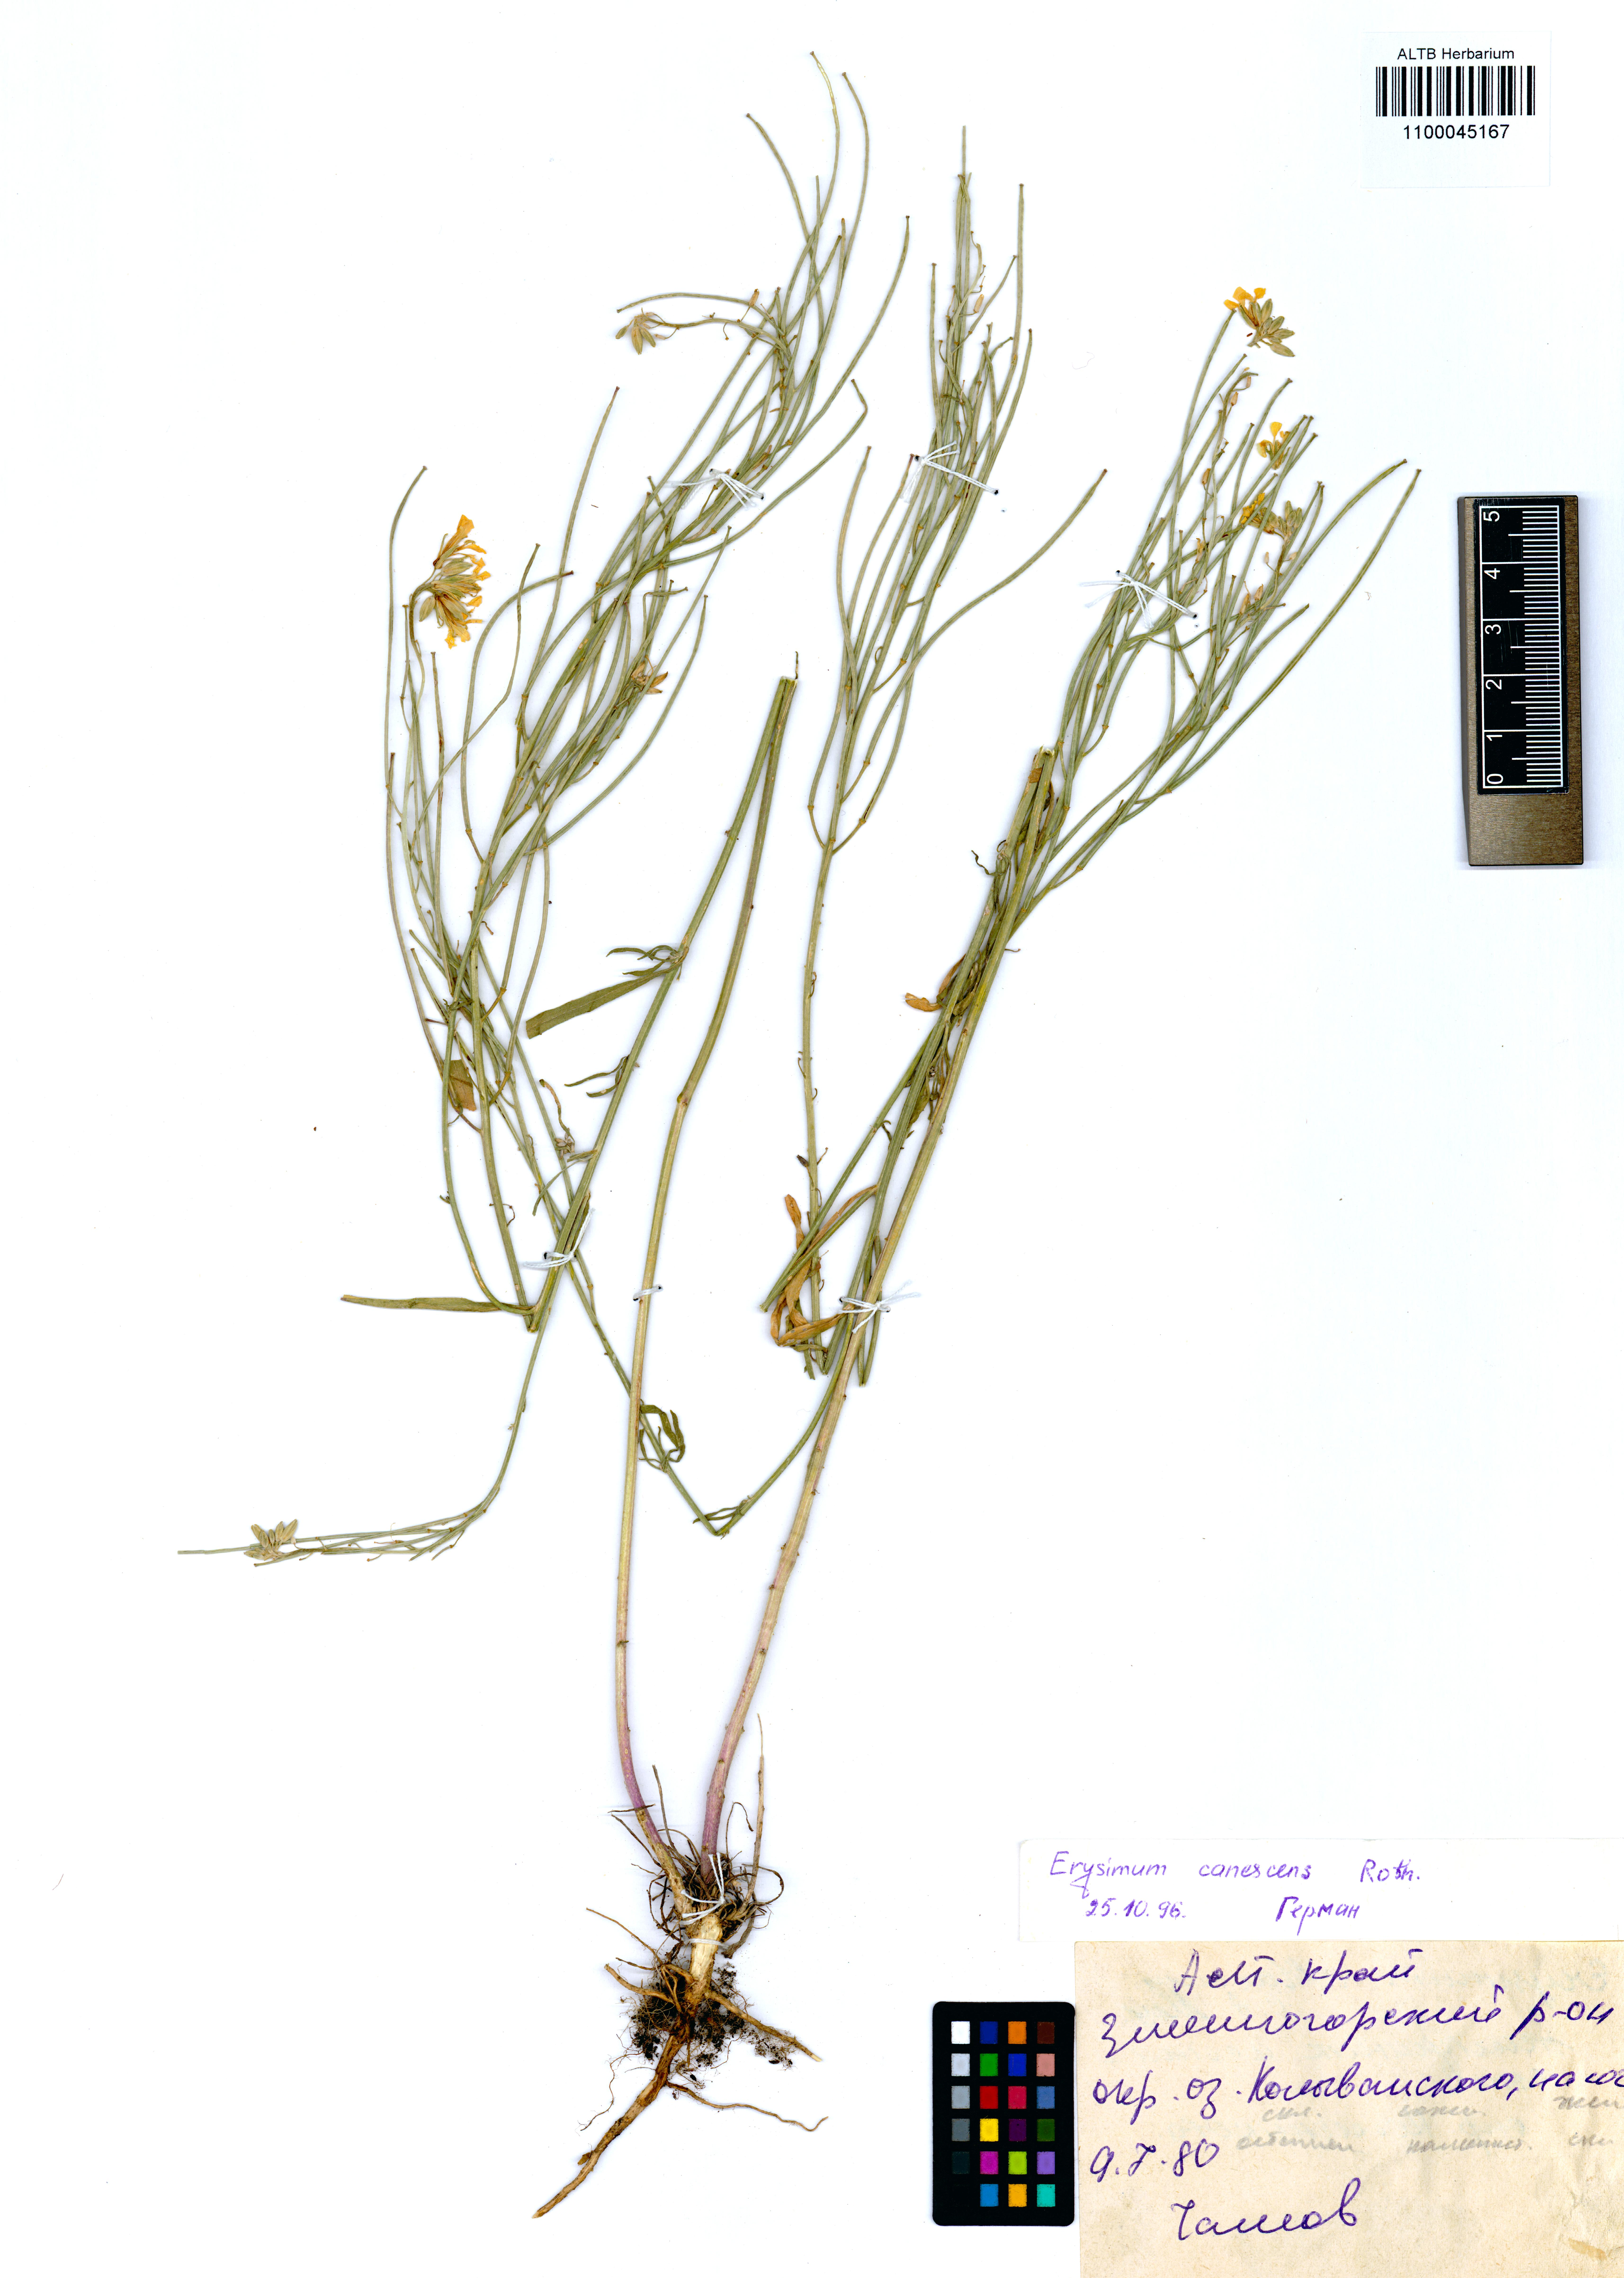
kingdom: Plantae
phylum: Tracheophyta
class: Magnoliopsida
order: Brassicales
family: Brassicaceae
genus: Erysimum
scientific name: Erysimum canescens
